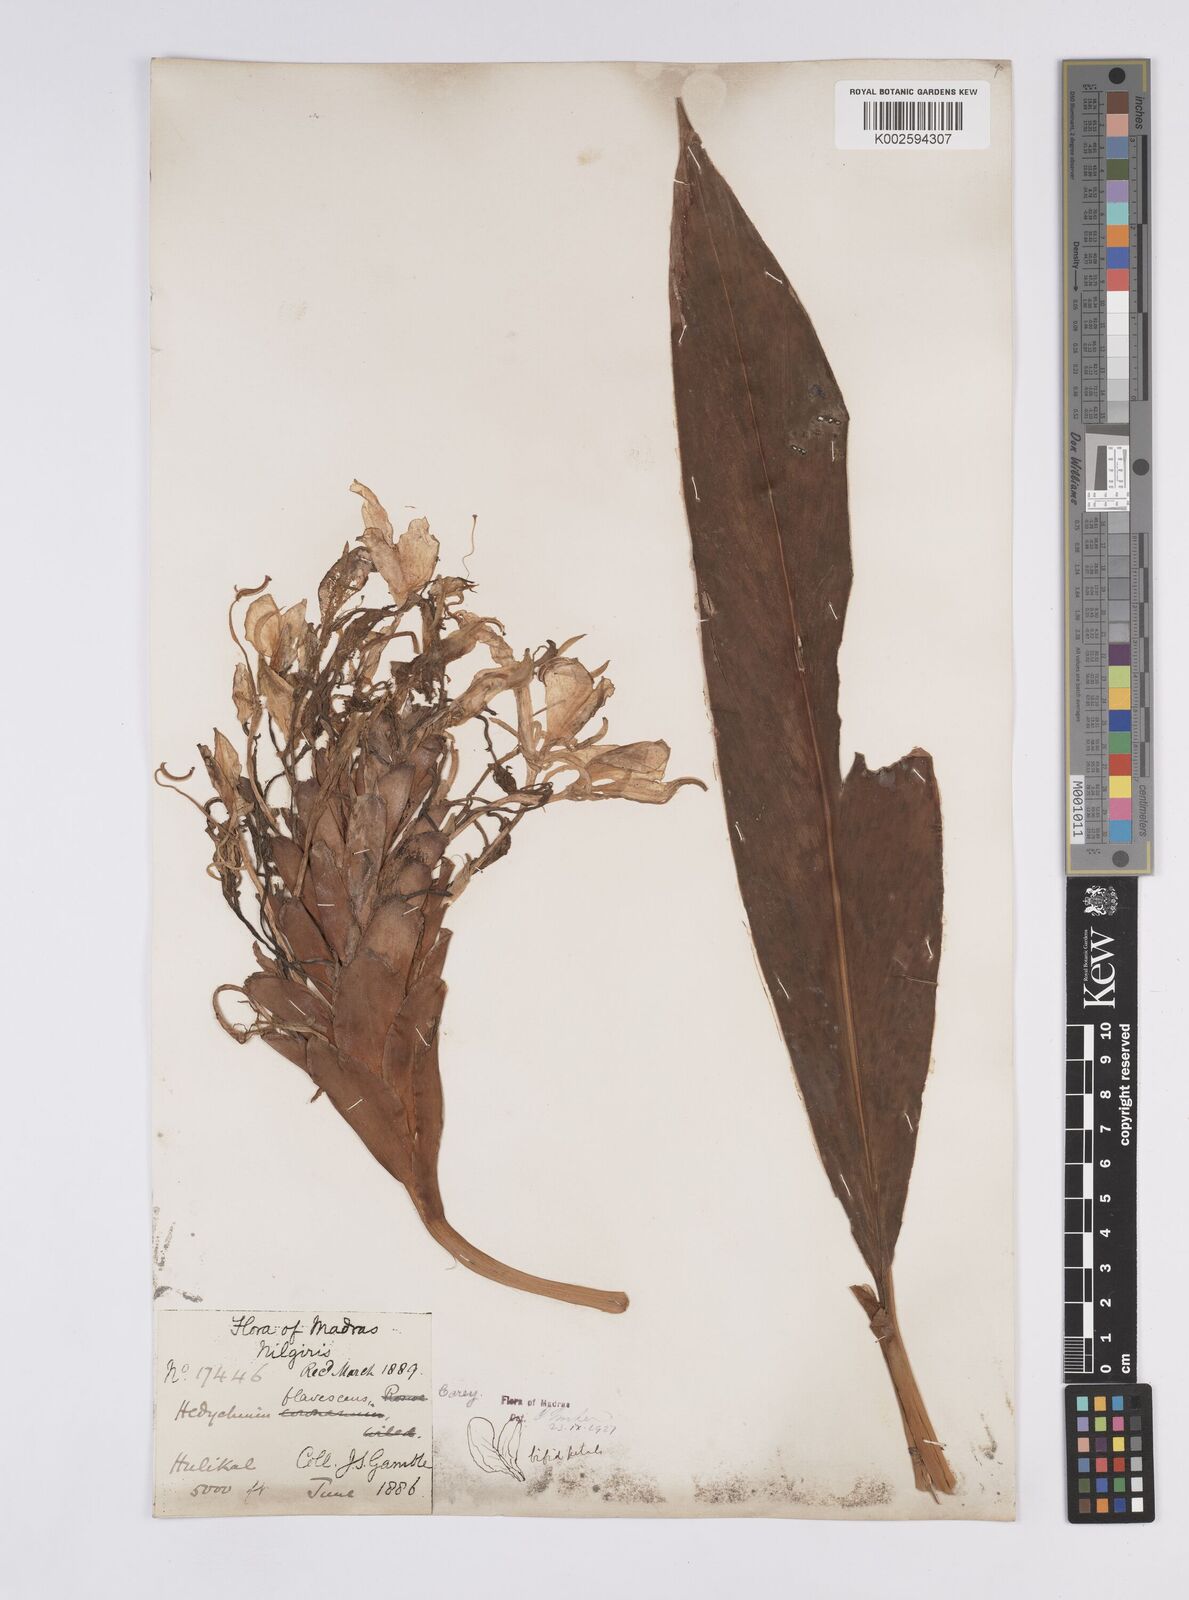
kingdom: Plantae
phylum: Tracheophyta
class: Liliopsida
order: Zingiberales
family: Zingiberaceae
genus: Hedychium
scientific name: Hedychium flavescens
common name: Yellow ginger
